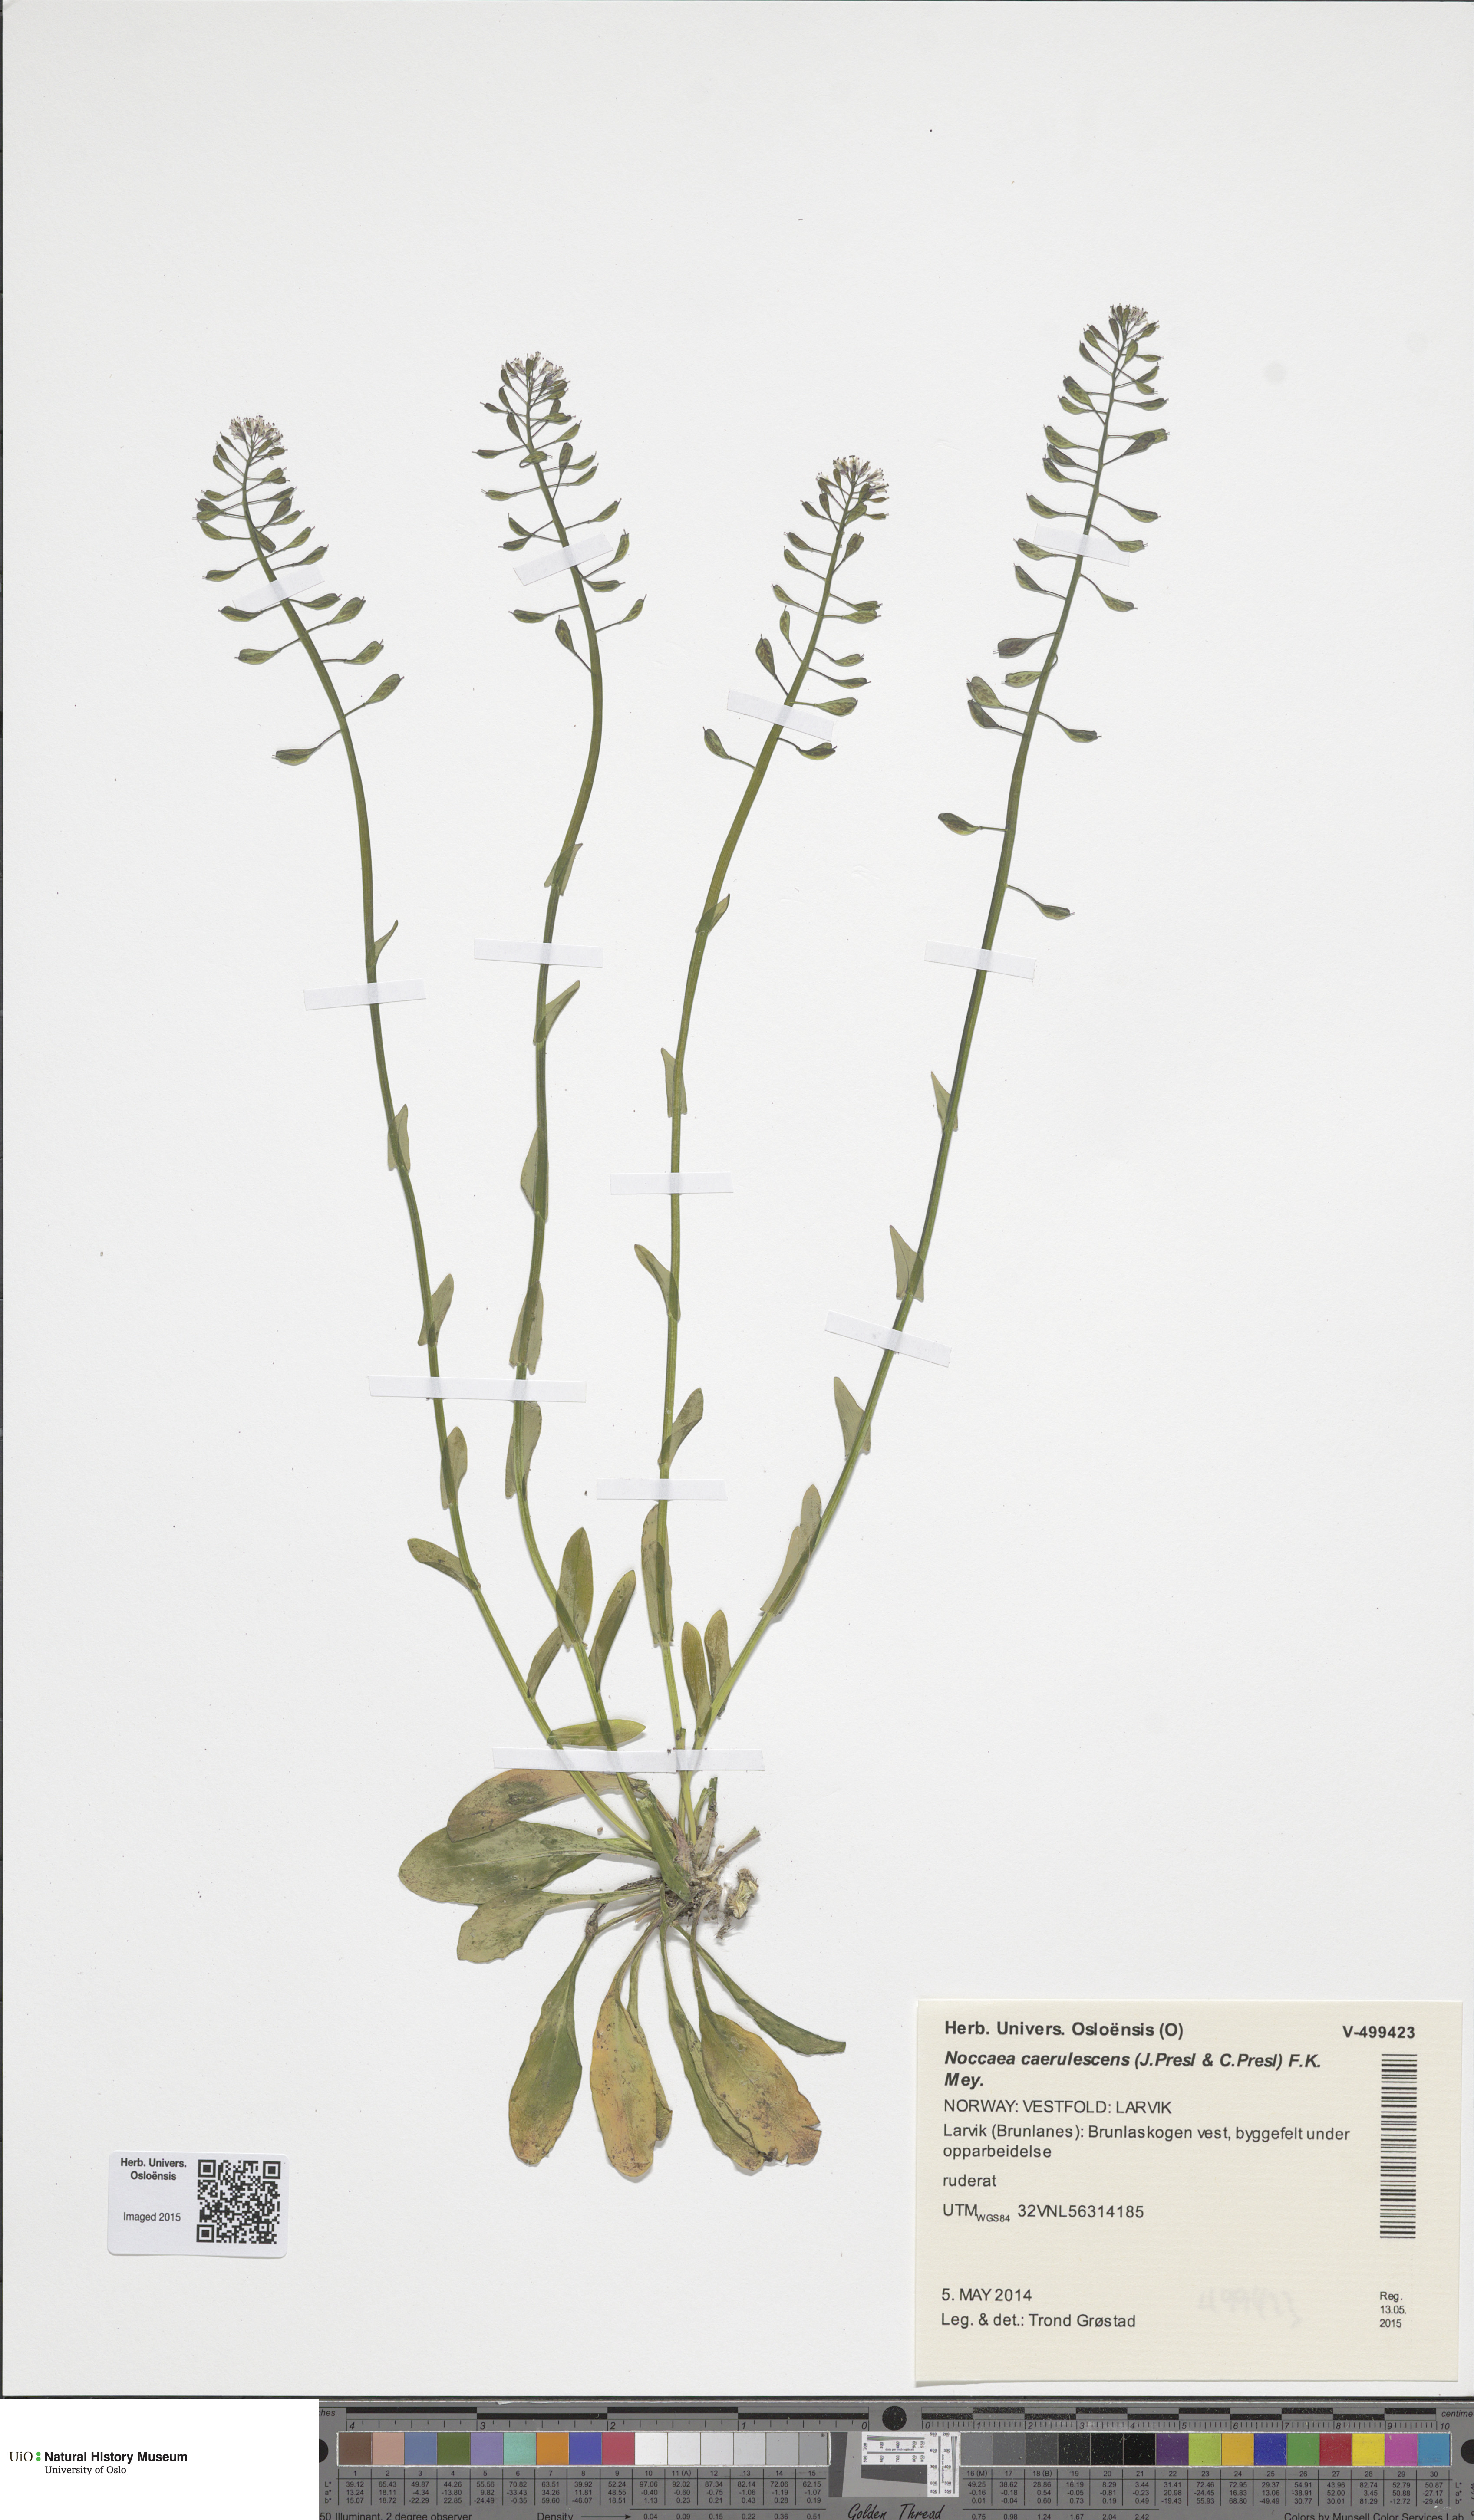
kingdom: Plantae
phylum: Tracheophyta
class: Magnoliopsida
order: Brassicales
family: Brassicaceae
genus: Noccaea
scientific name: Noccaea caerulescens
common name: Alpine pennycress
